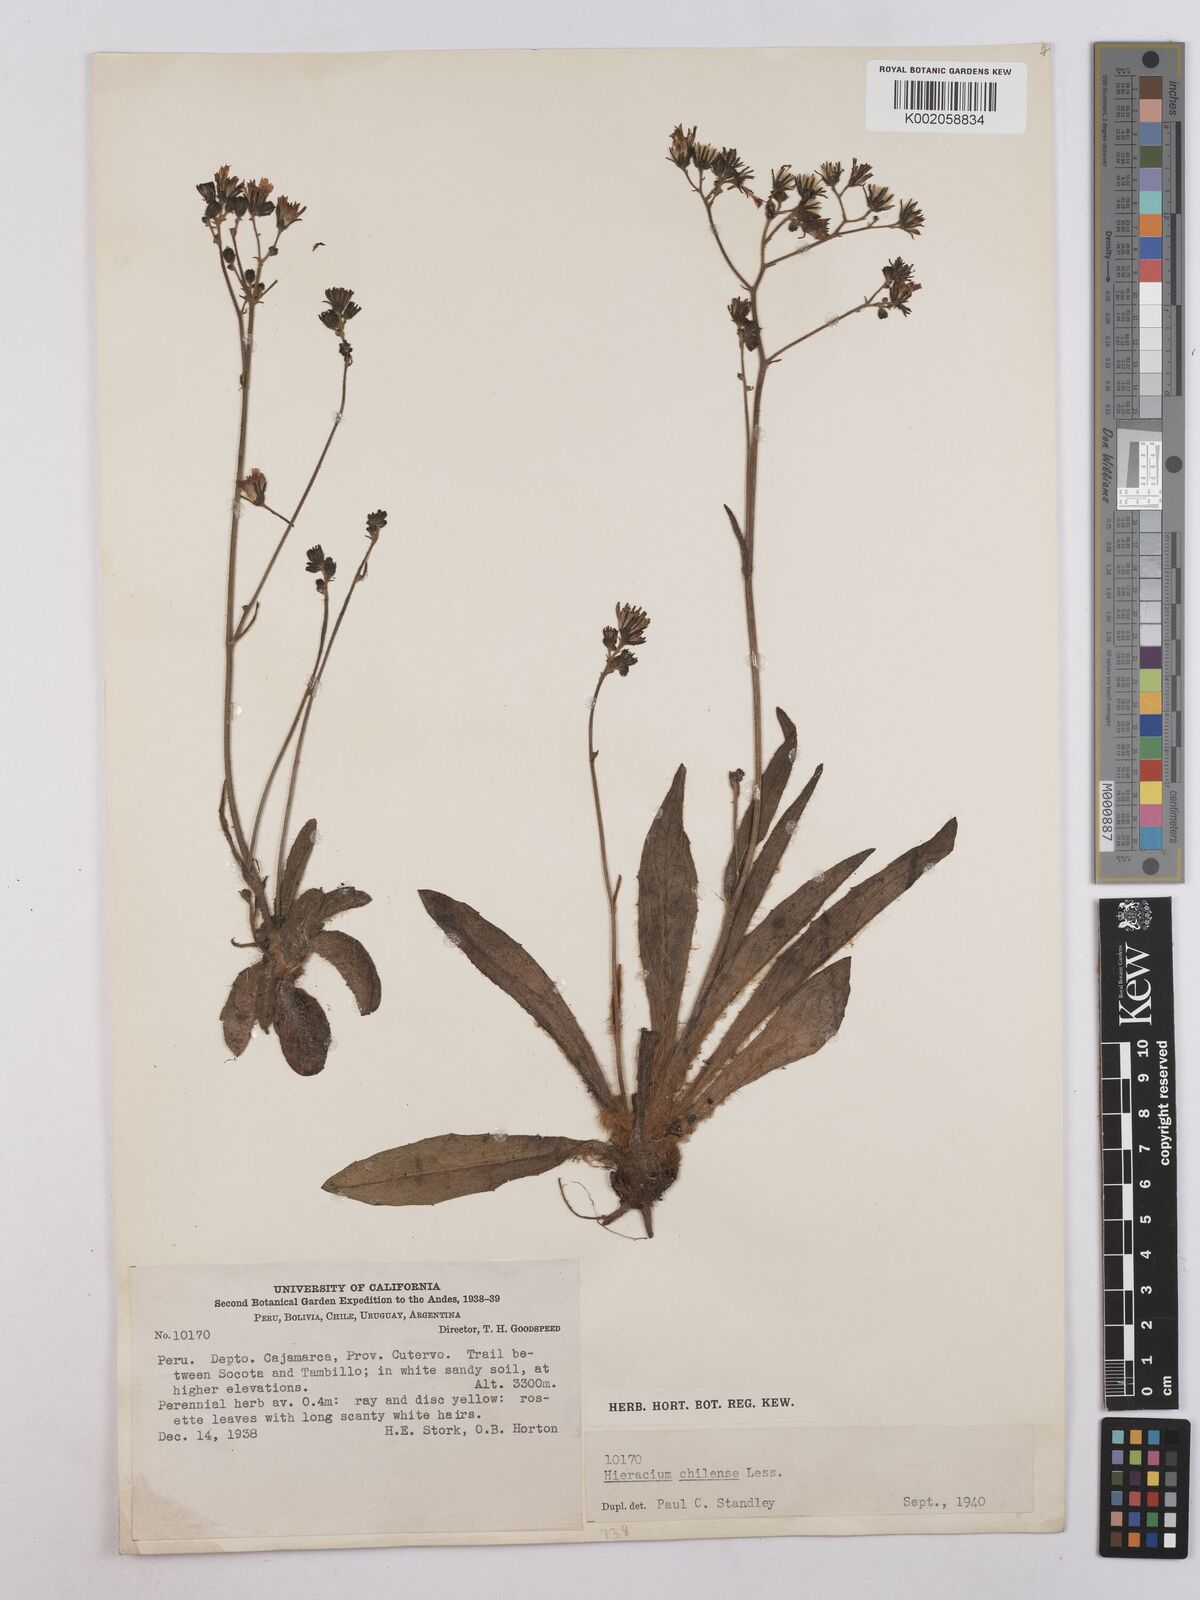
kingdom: Plantae
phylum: Tracheophyta
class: Magnoliopsida
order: Asterales
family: Asteraceae
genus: Hieracium
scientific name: Hieracium chilense
